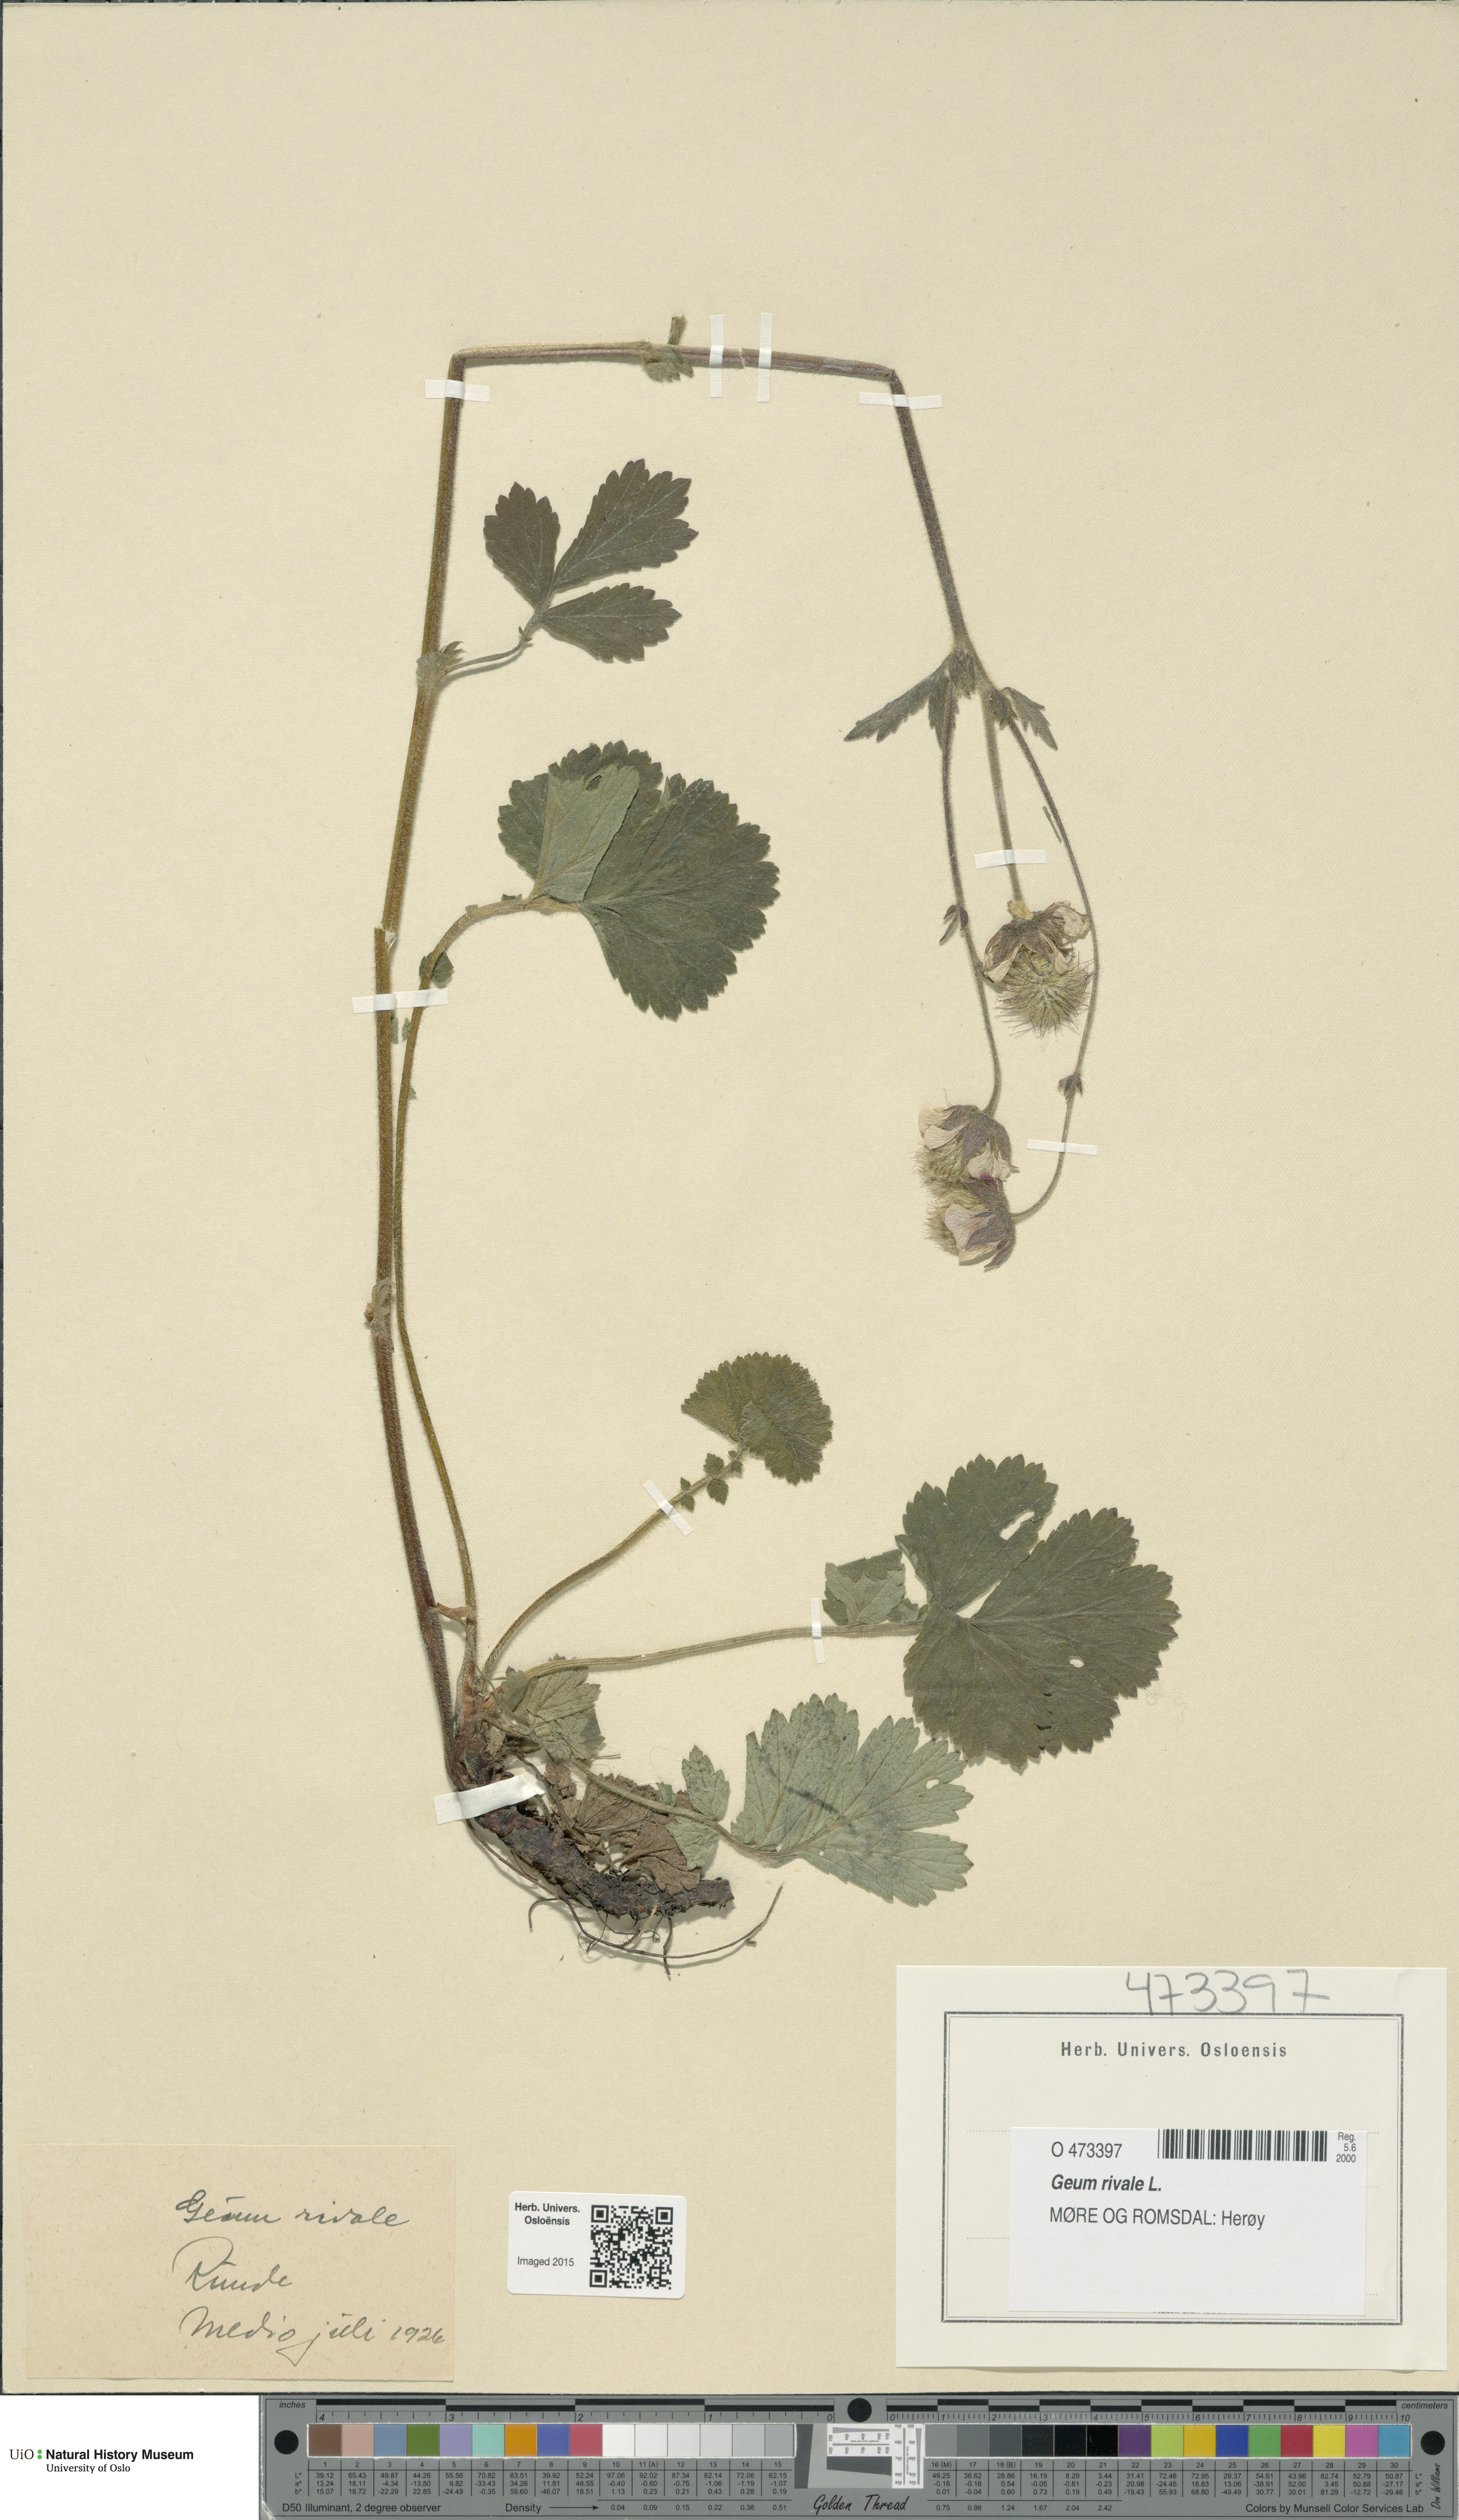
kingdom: Plantae
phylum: Tracheophyta
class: Magnoliopsida
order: Rosales
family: Rosaceae
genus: Geum
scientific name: Geum rivale
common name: Water avens
